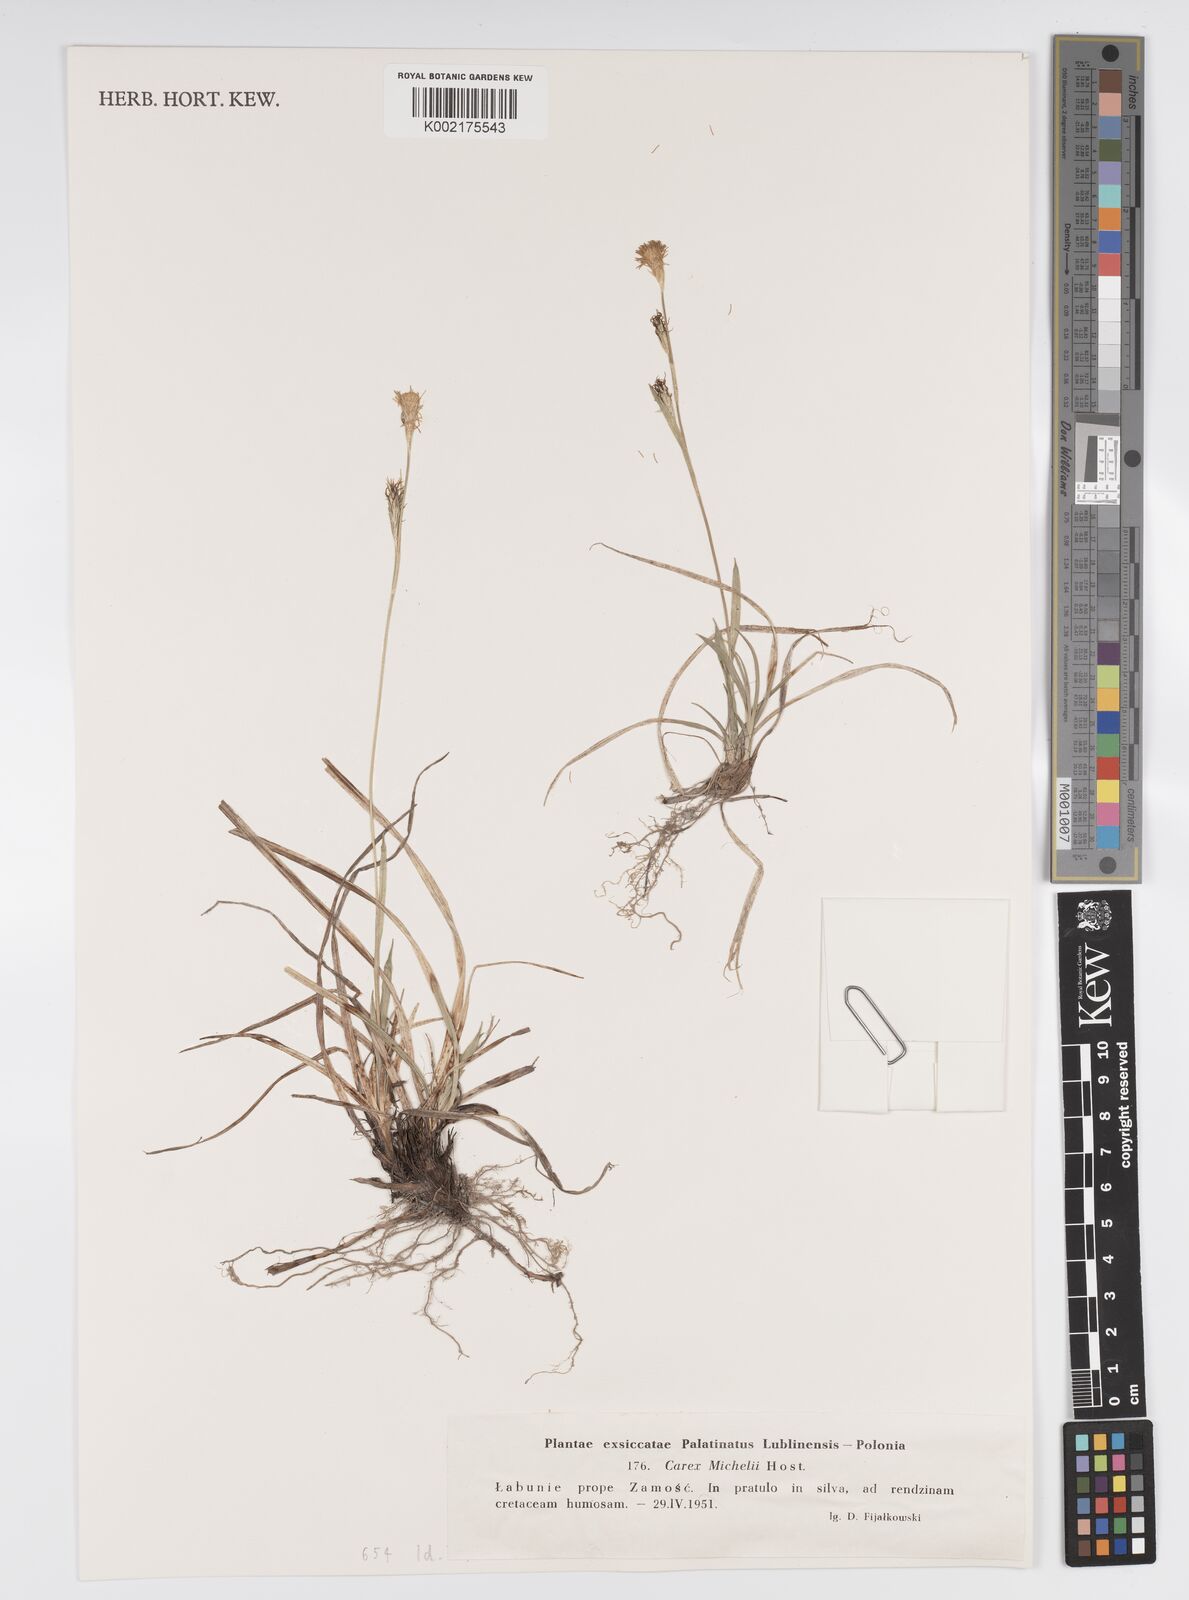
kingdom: Plantae
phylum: Tracheophyta
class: Liliopsida
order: Poales
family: Cyperaceae
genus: Carex
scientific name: Carex michelii
